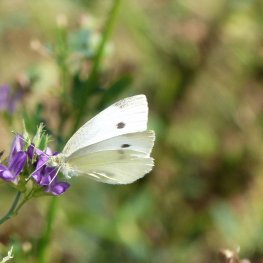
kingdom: Animalia
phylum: Arthropoda
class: Insecta
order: Lepidoptera
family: Pieridae
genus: Pieris
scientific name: Pieris rapae
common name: Cabbage White
